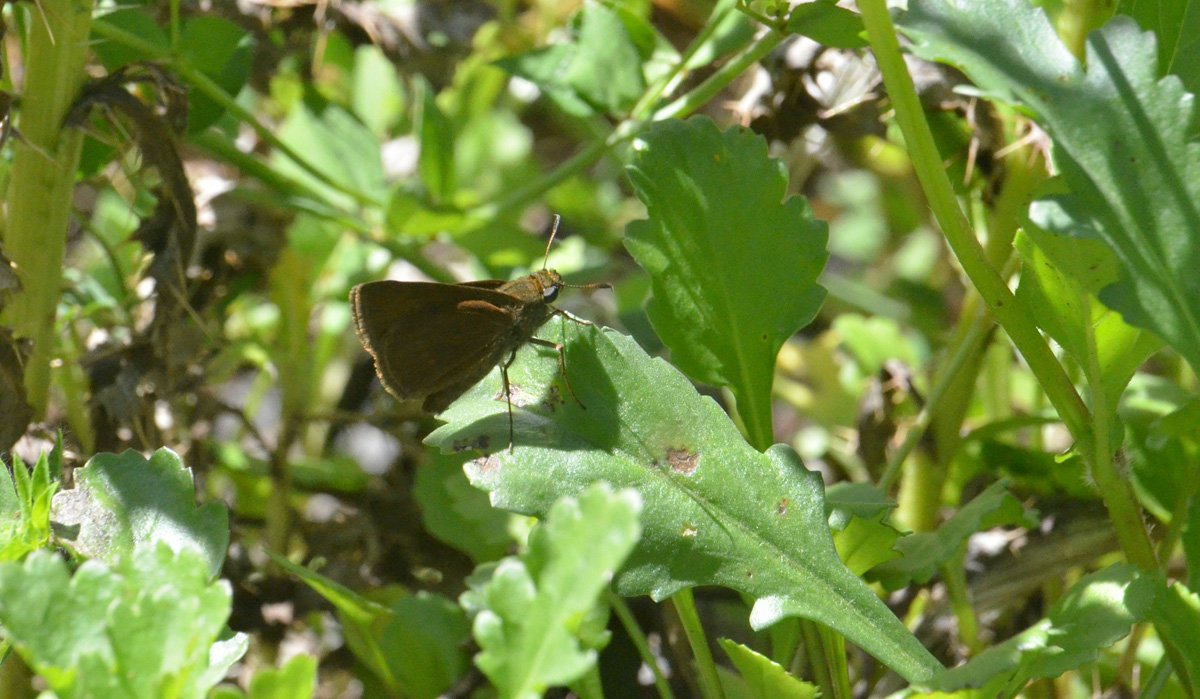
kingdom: Animalia
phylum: Arthropoda
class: Insecta
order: Lepidoptera
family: Hesperiidae
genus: Euphyes
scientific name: Euphyes vestris
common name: Dun Skipper
